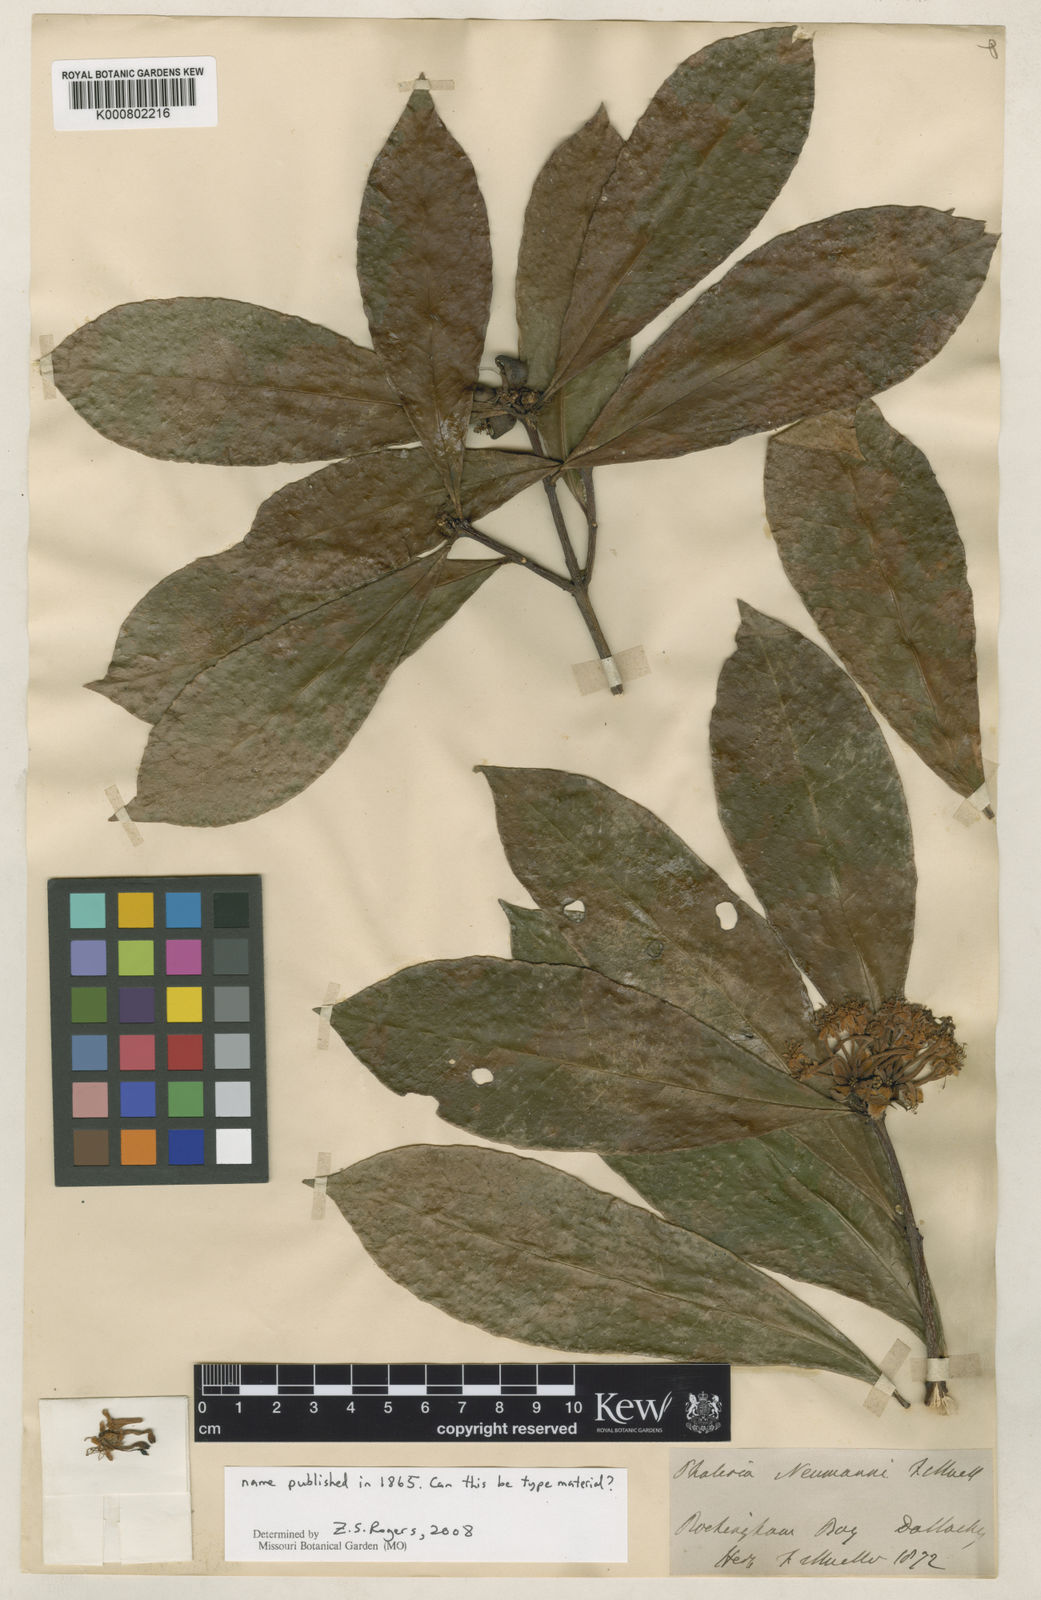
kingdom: Plantae
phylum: Tracheophyta
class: Magnoliopsida
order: Malvales
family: Thymelaeaceae
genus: Phaleria
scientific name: Phaleria octandra
